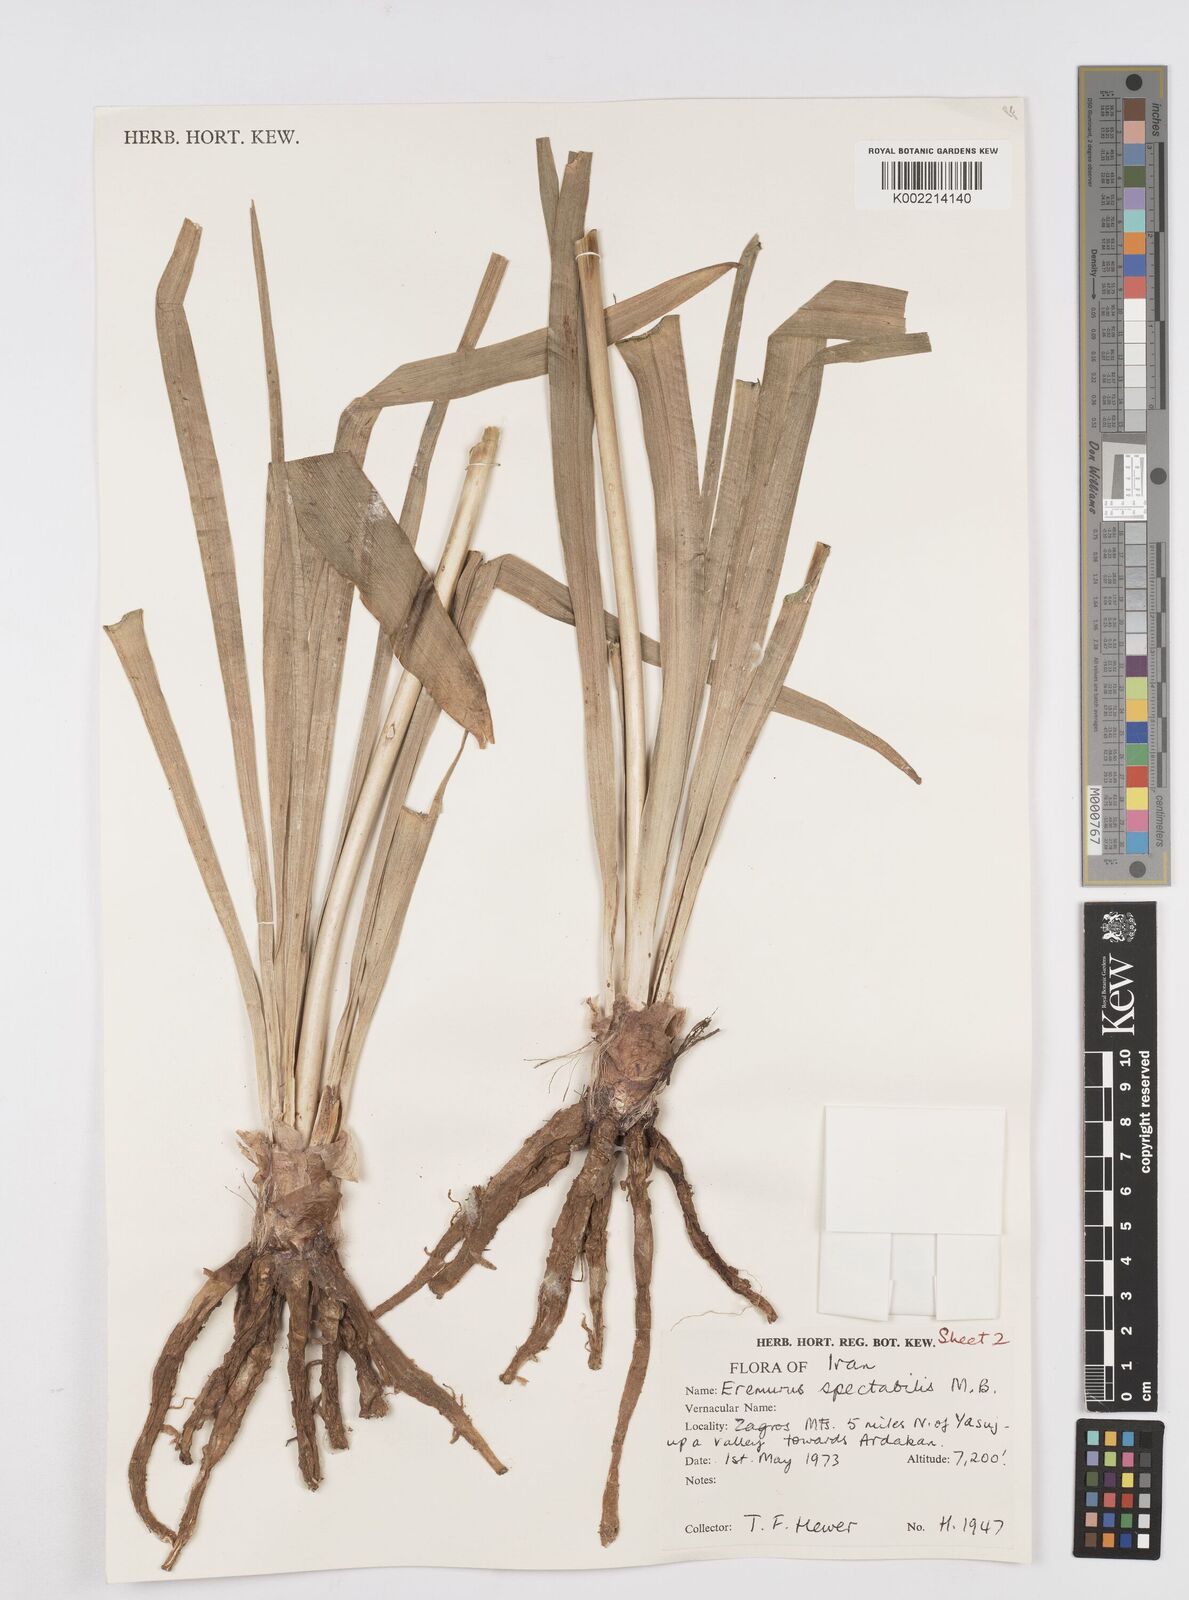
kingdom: Plantae
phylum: Tracheophyta
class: Liliopsida
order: Asparagales
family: Asphodelaceae
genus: Eremurus
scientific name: Eremurus spectabilis
